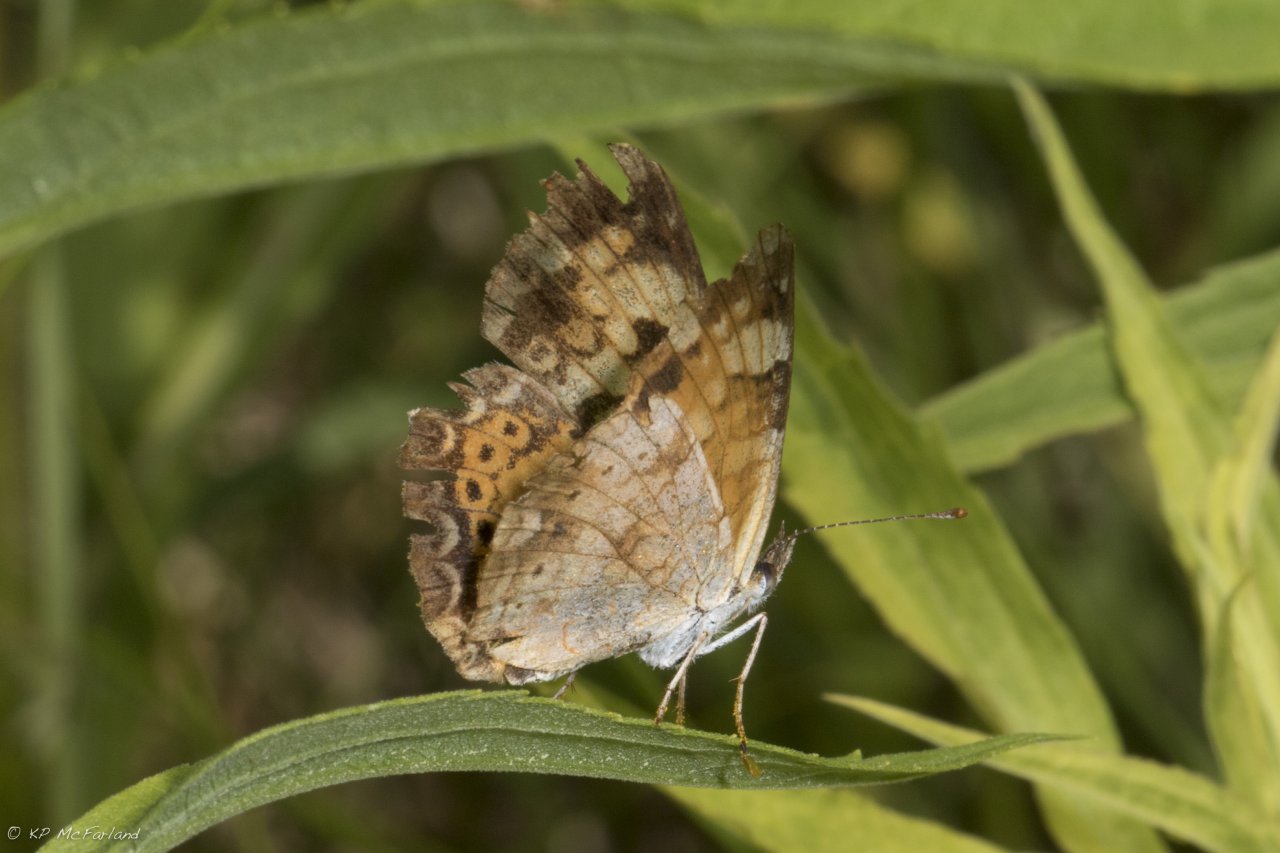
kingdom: Animalia
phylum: Arthropoda
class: Insecta
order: Lepidoptera
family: Nymphalidae
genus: Phyciodes
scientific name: Phyciodes
